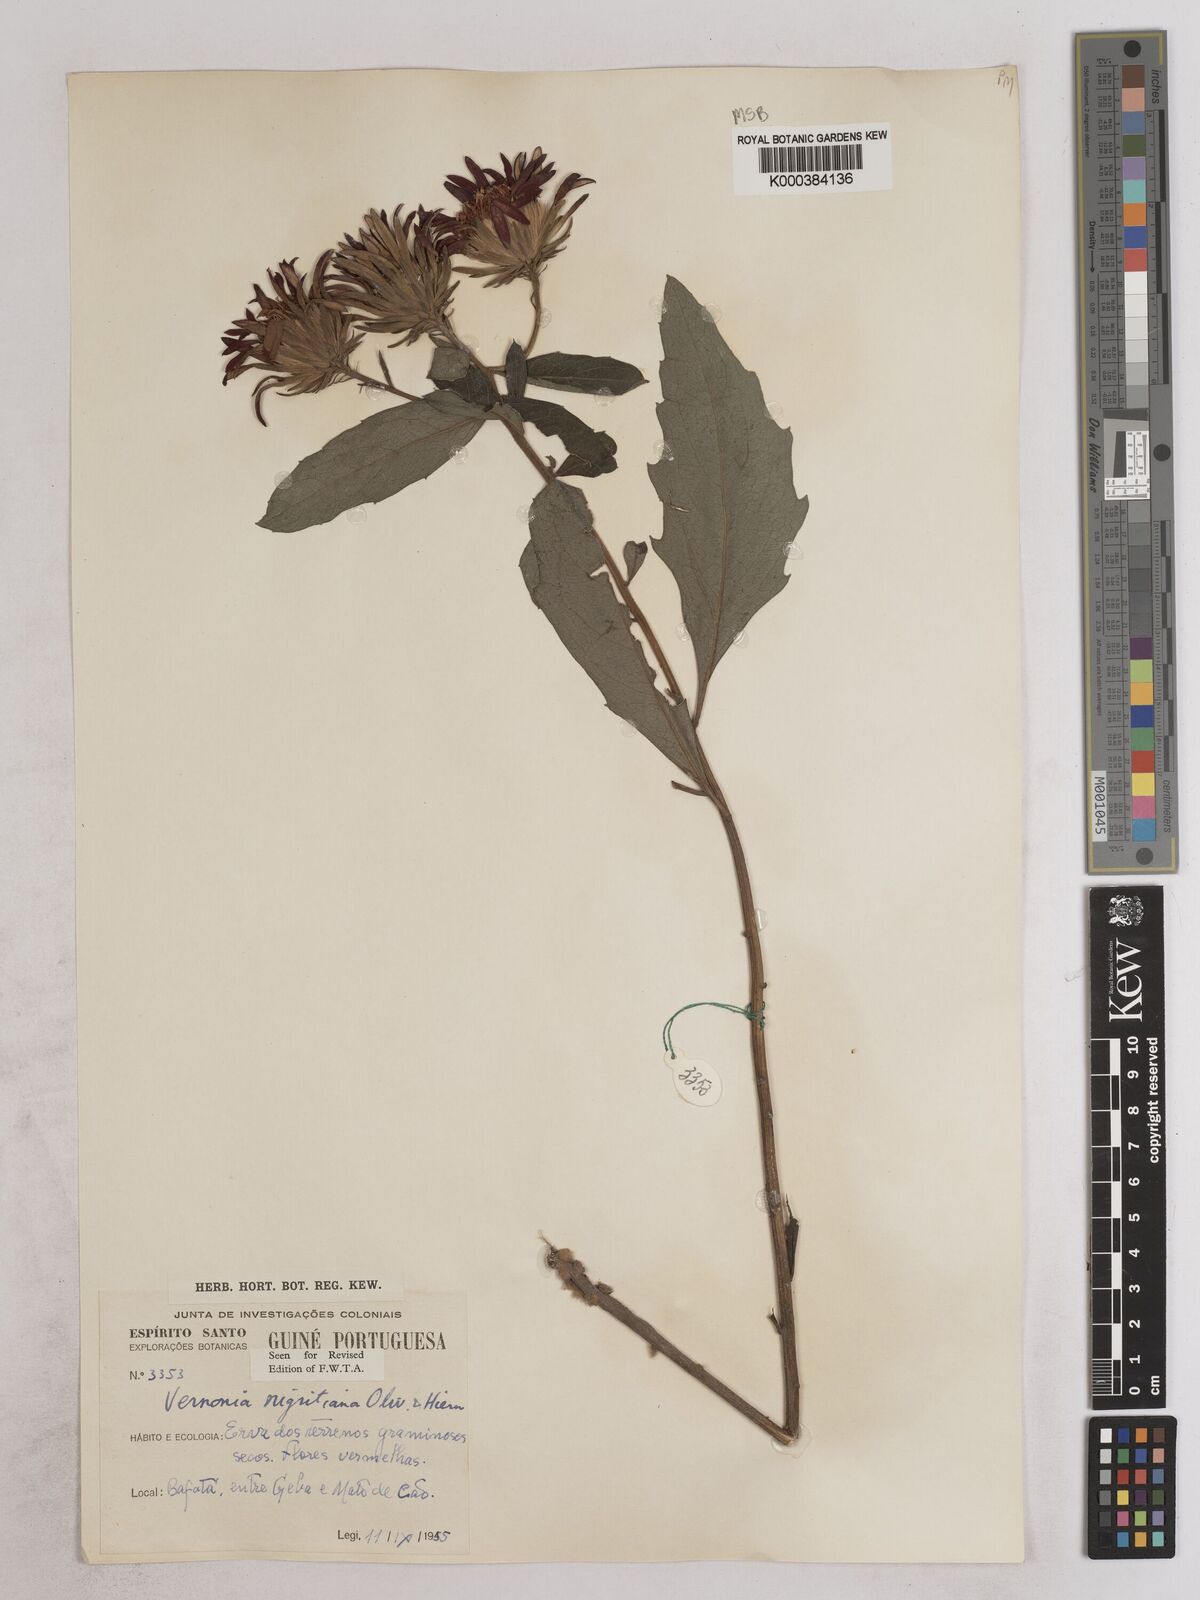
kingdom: Plantae
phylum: Tracheophyta
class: Magnoliopsida
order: Asterales
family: Asteraceae
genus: Linzia
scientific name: Linzia nigritiana
